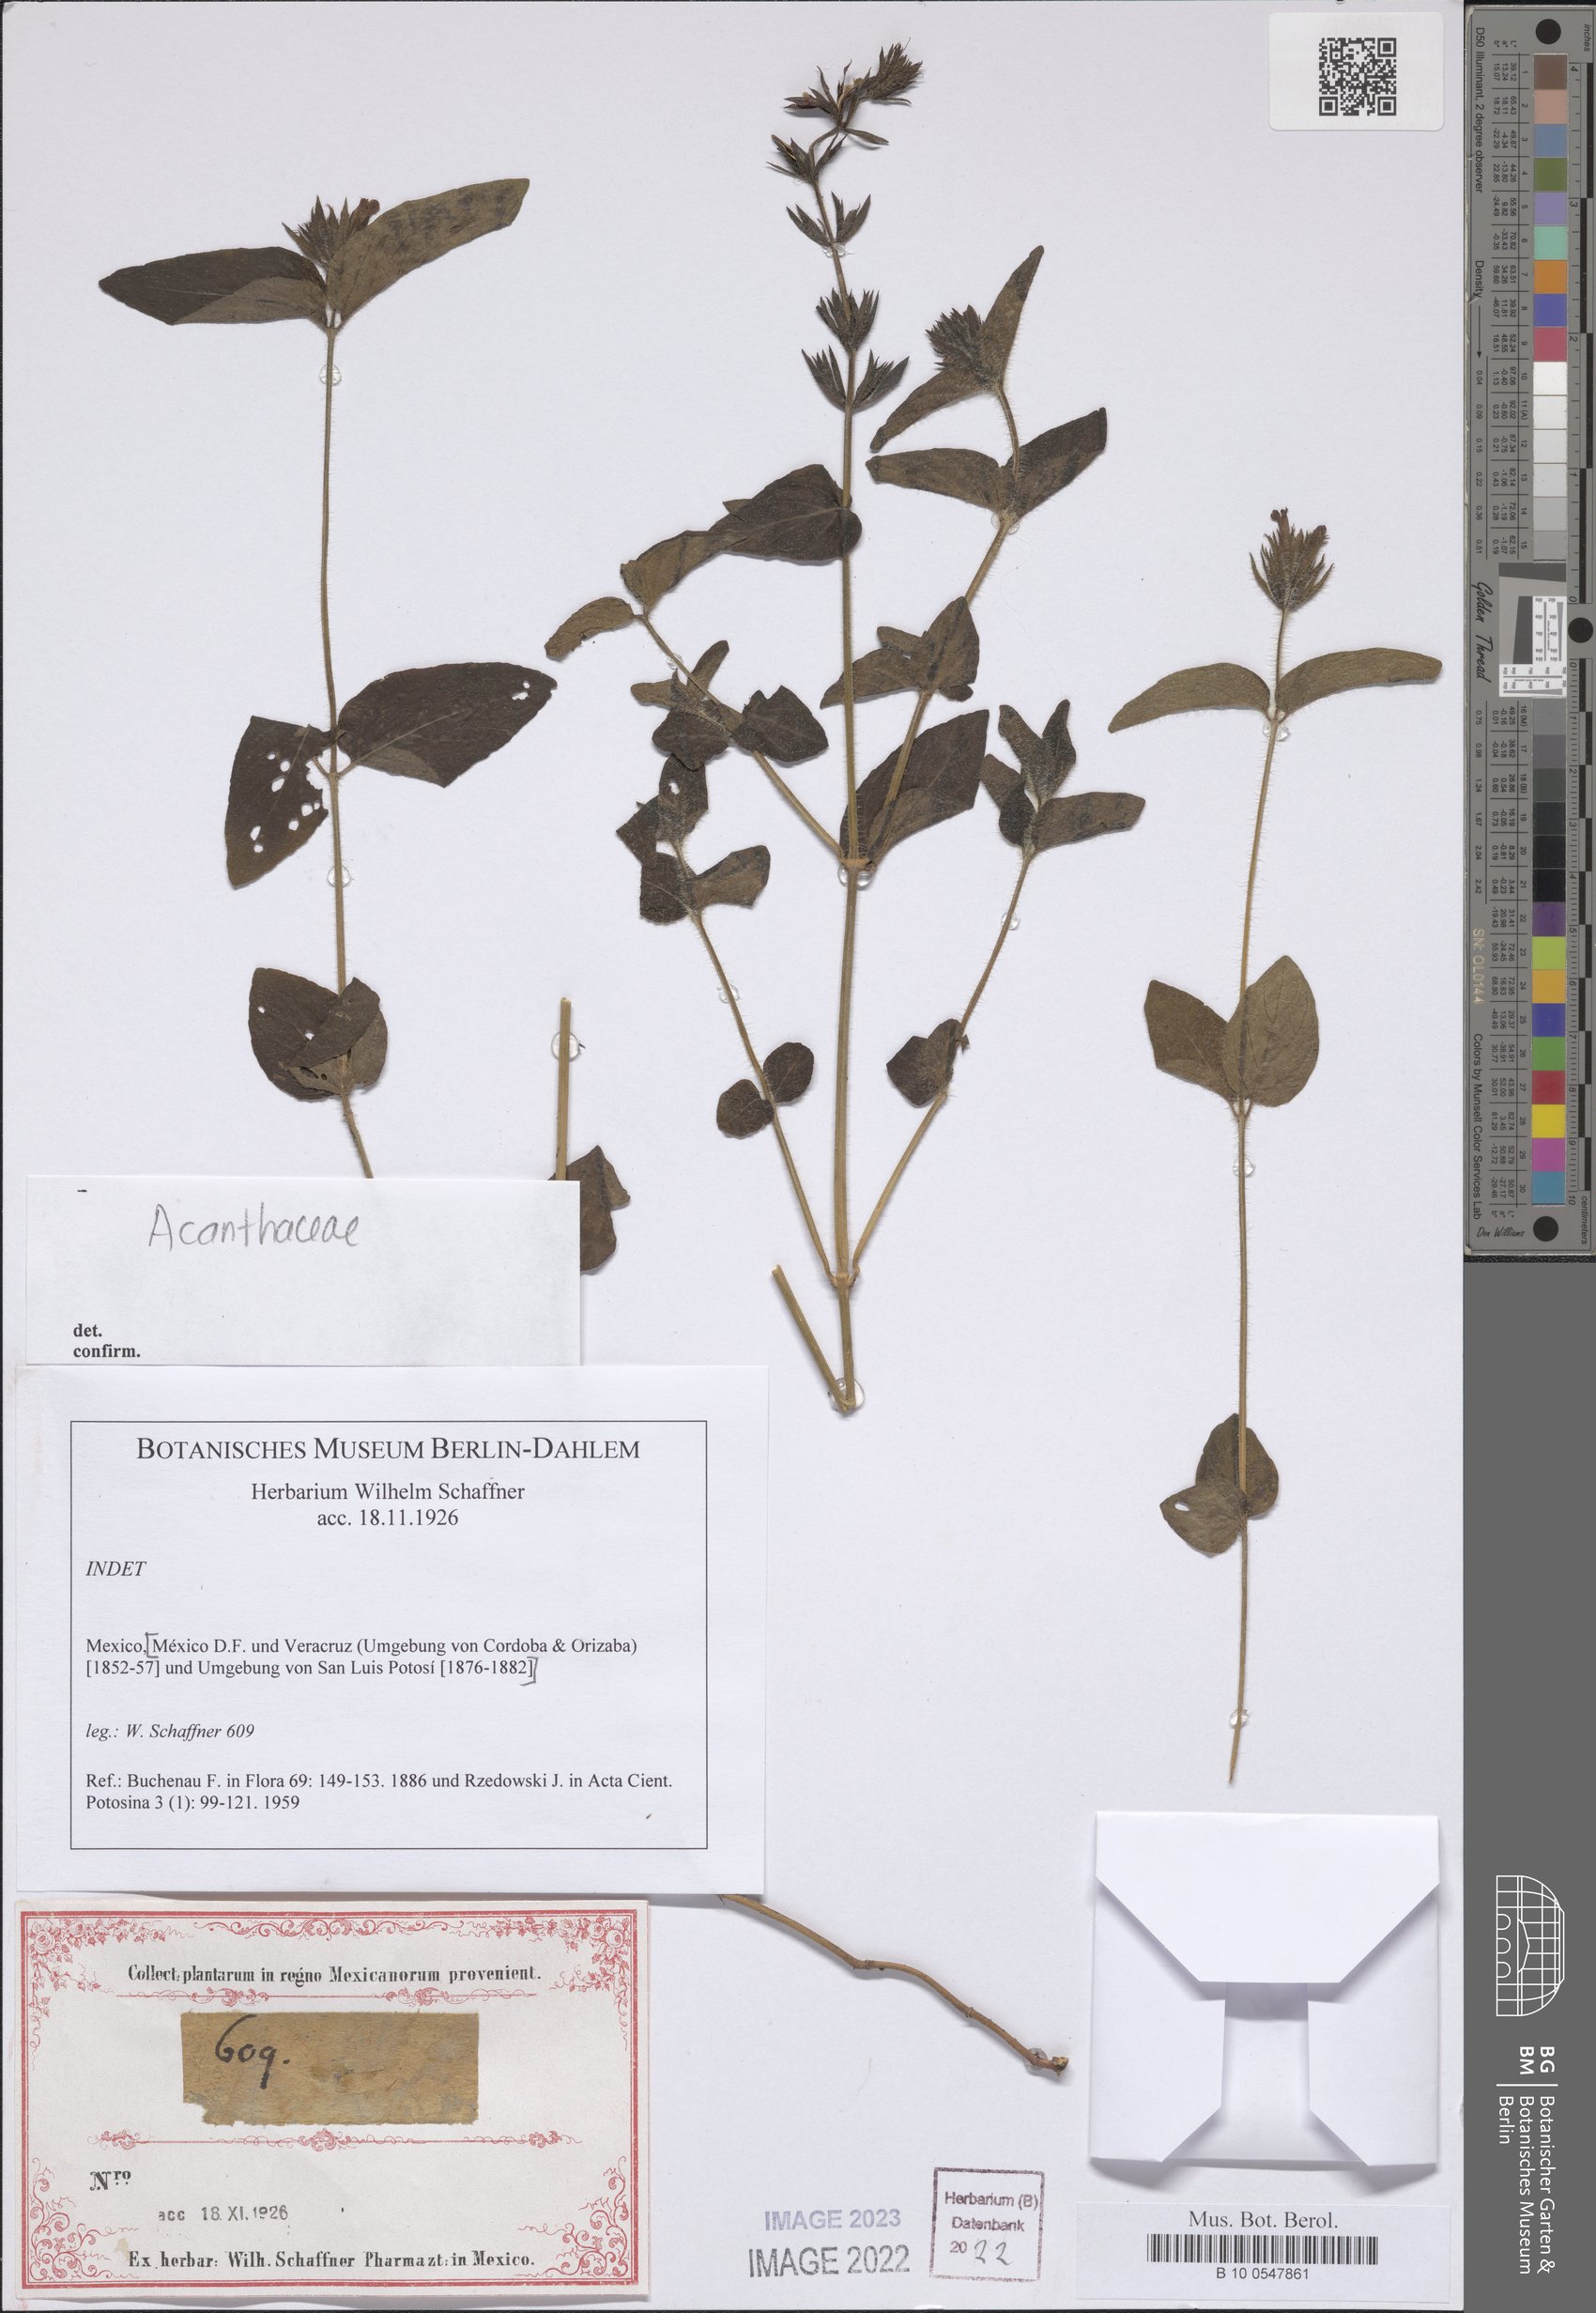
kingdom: Plantae
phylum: Tracheophyta
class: Magnoliopsida
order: Lamiales
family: Acanthaceae
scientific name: Acanthaceae
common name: Acanthaceae
